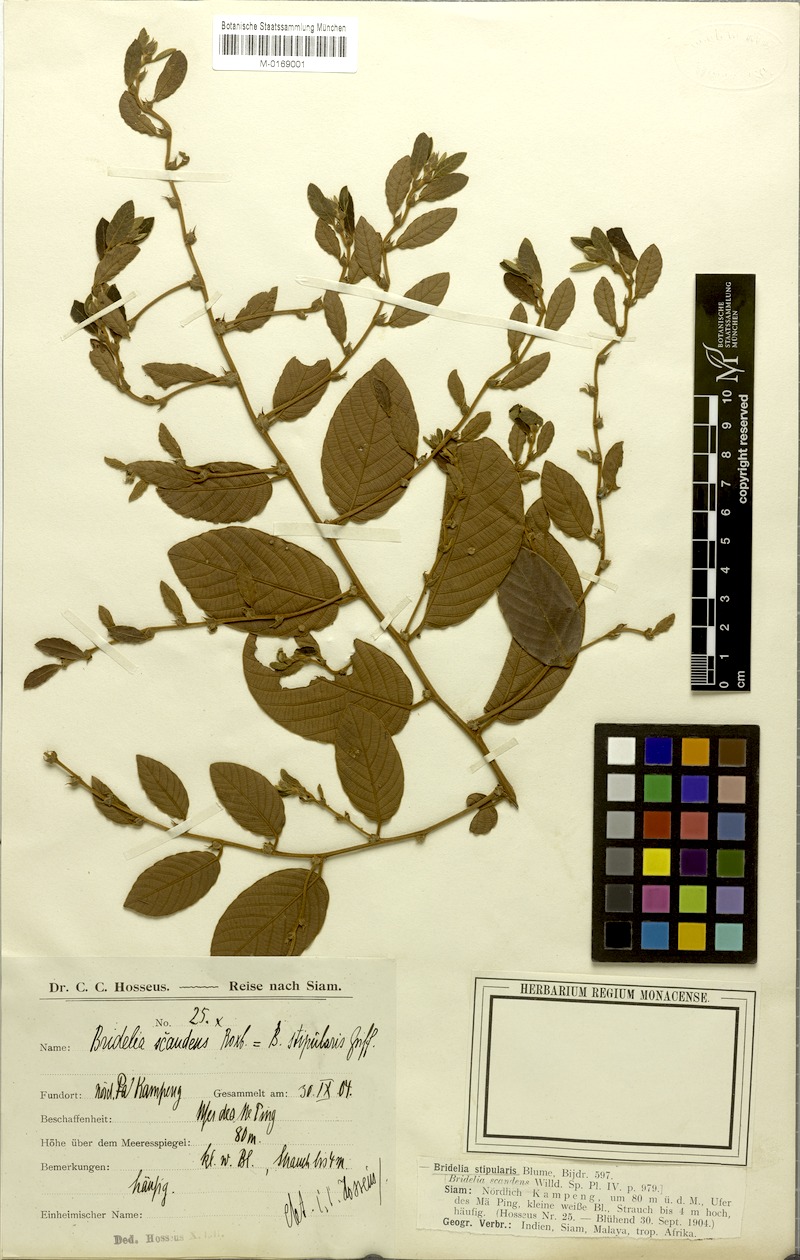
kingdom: Plantae
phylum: Tracheophyta
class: Magnoliopsida
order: Malpighiales
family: Phyllanthaceae
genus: Bridelia
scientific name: Bridelia stipularis
